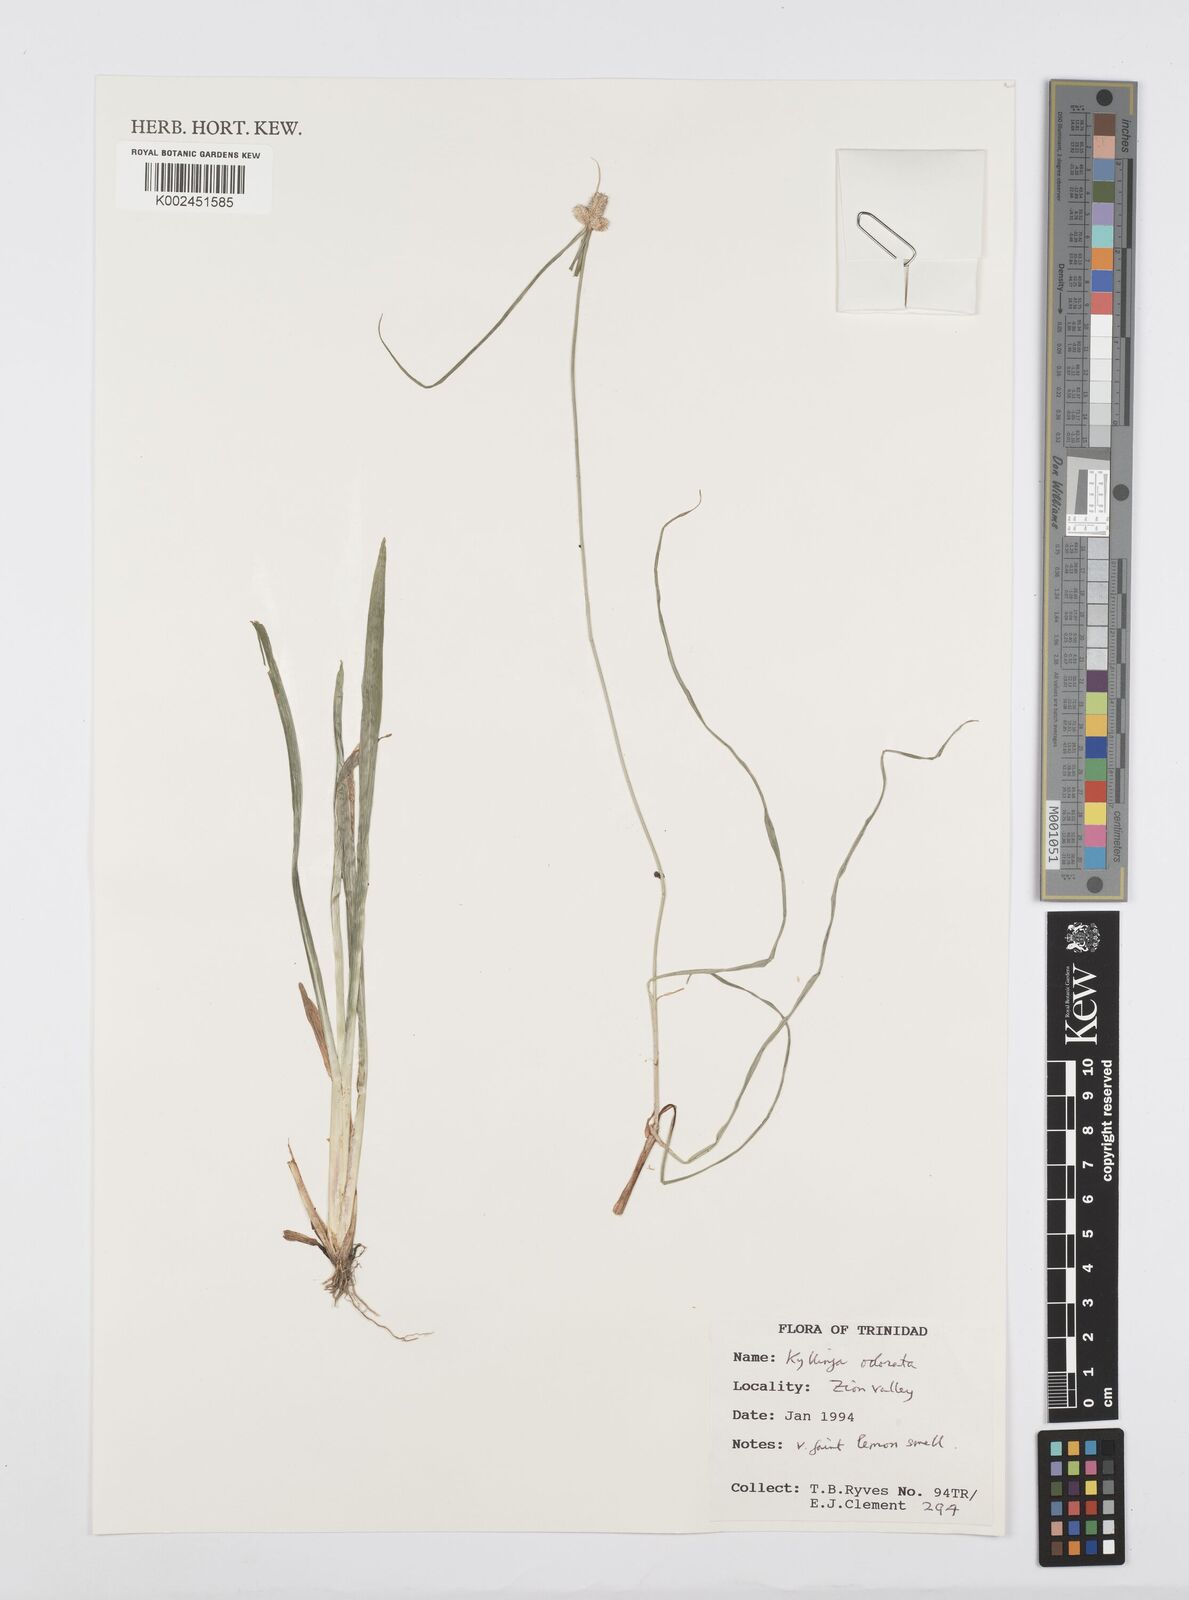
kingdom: Plantae
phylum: Tracheophyta
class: Liliopsida
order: Poales
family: Cyperaceae
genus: Cyperus
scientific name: Cyperus
